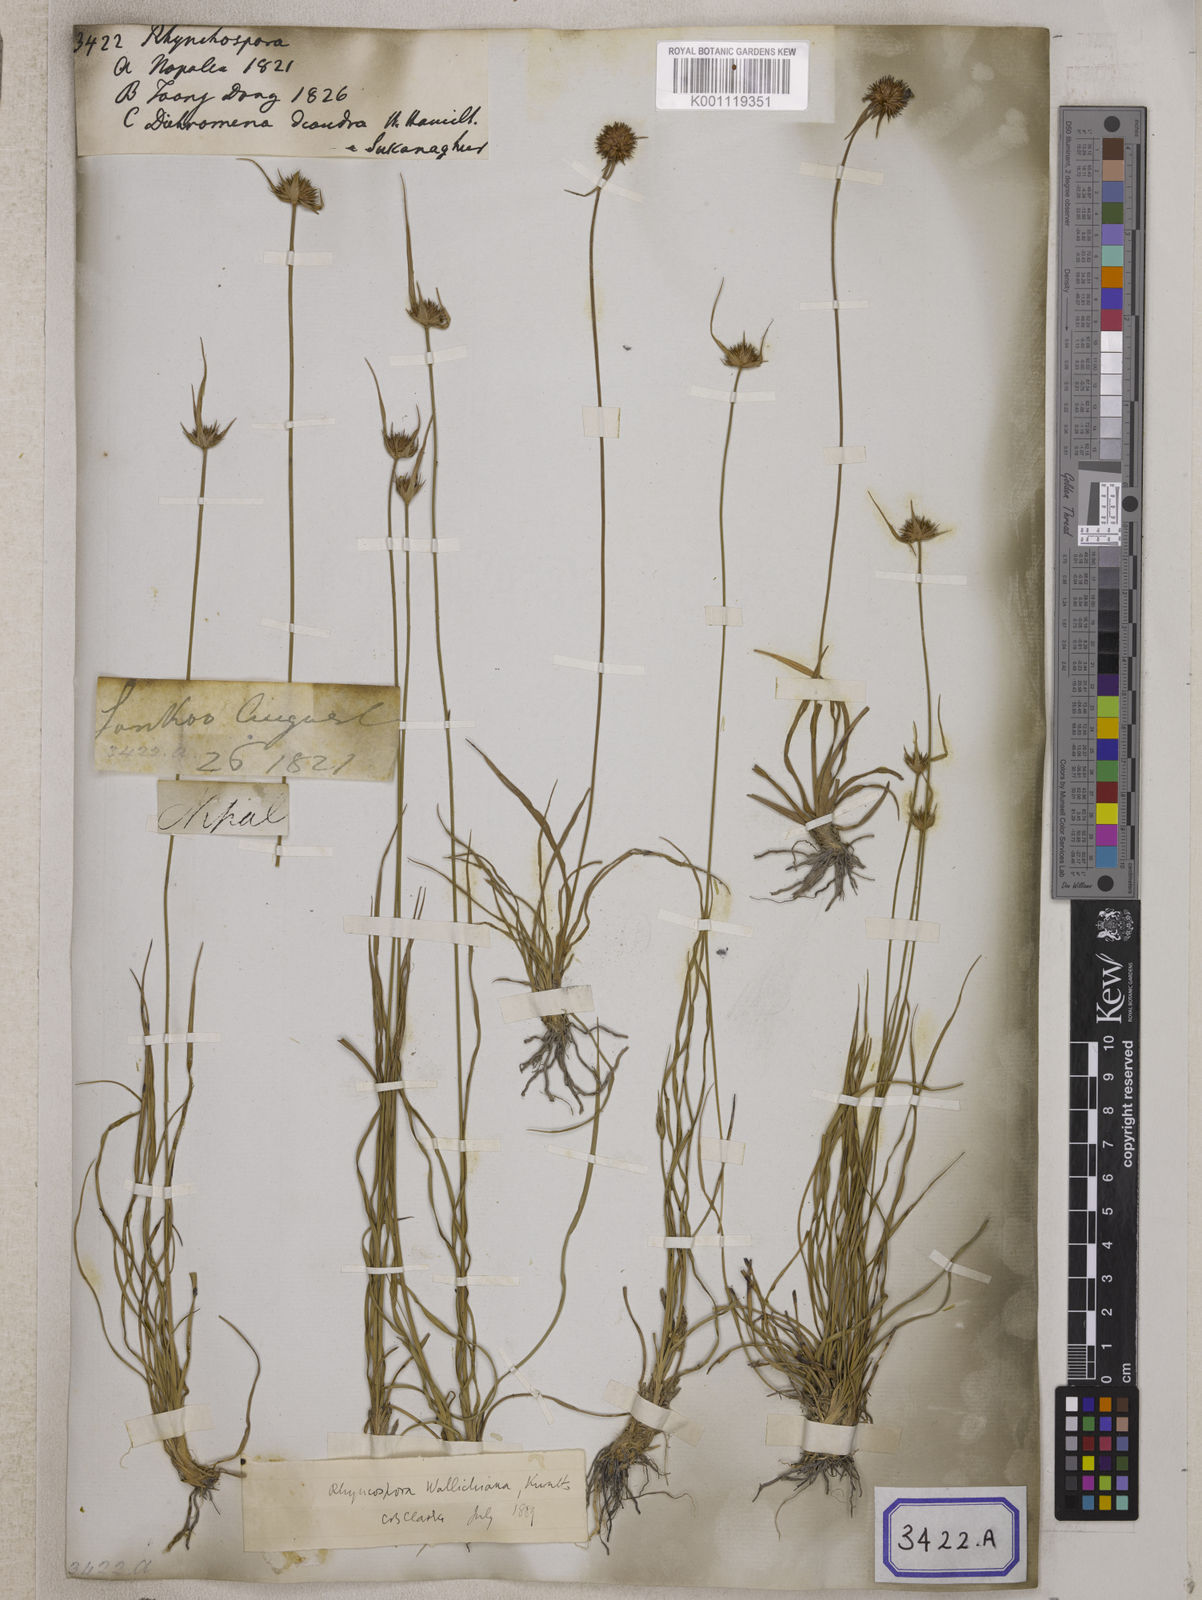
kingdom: Plantae
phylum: Tracheophyta
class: Liliopsida
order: Poales
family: Cyperaceae
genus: Rhynchospora
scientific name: Rhynchospora
